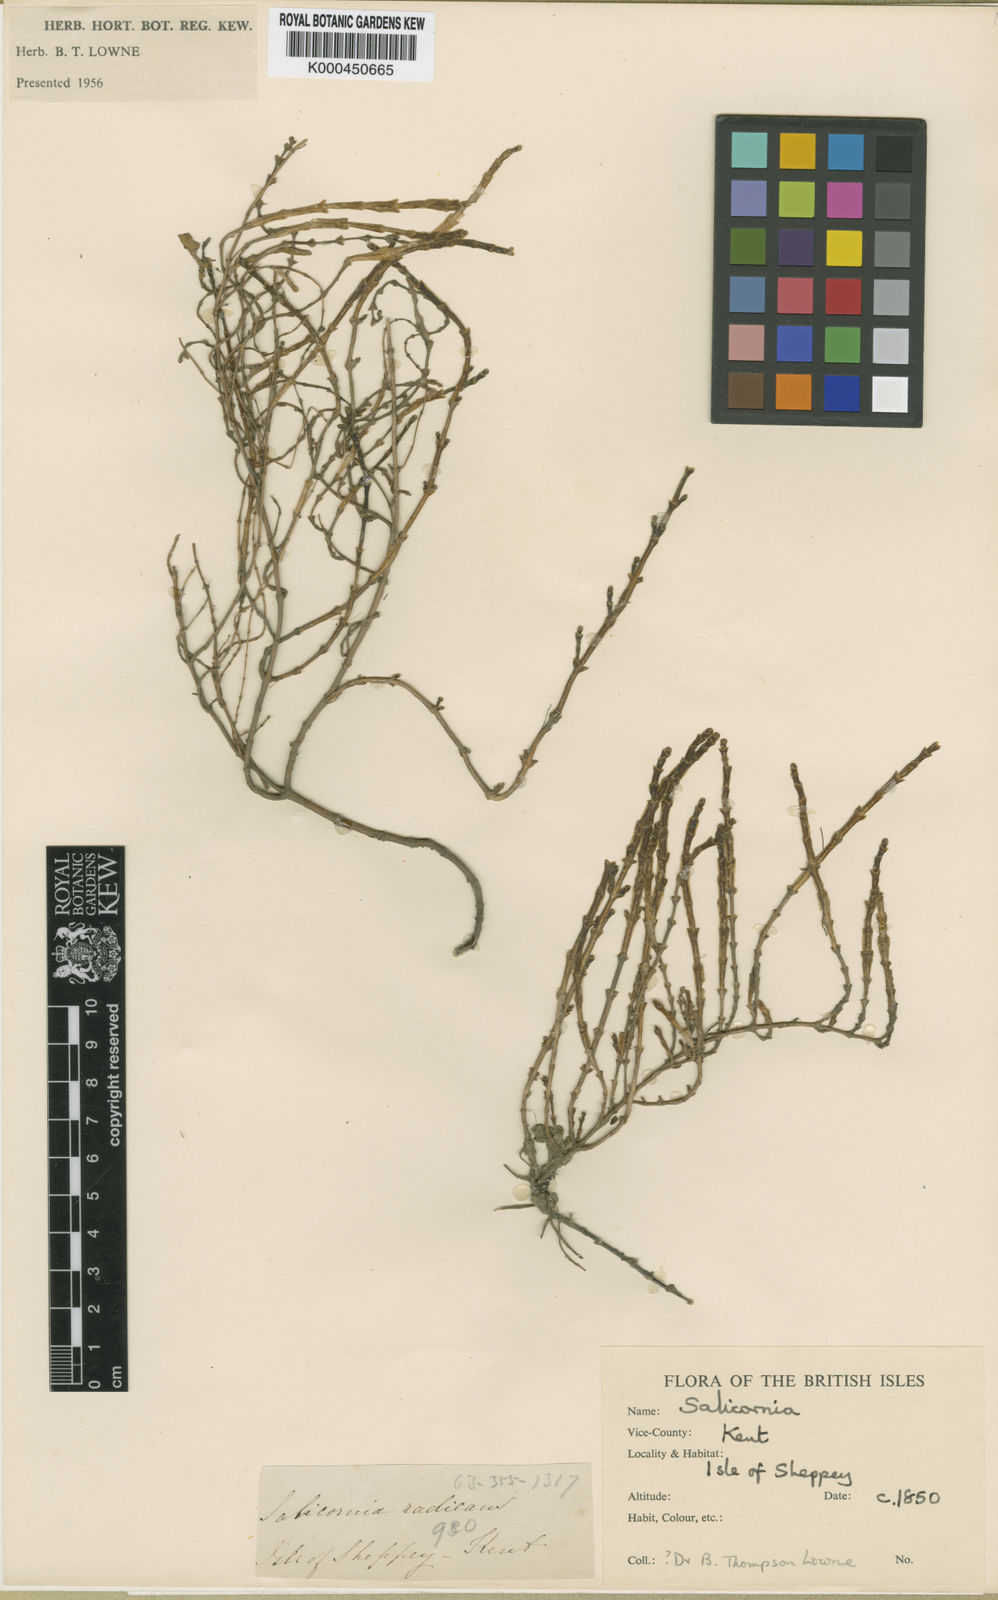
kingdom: Plantae
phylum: Tracheophyta
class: Magnoliopsida
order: Caryophyllales
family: Amaranthaceae
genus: Salicornia
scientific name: Salicornia perennis
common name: Chicken claws
